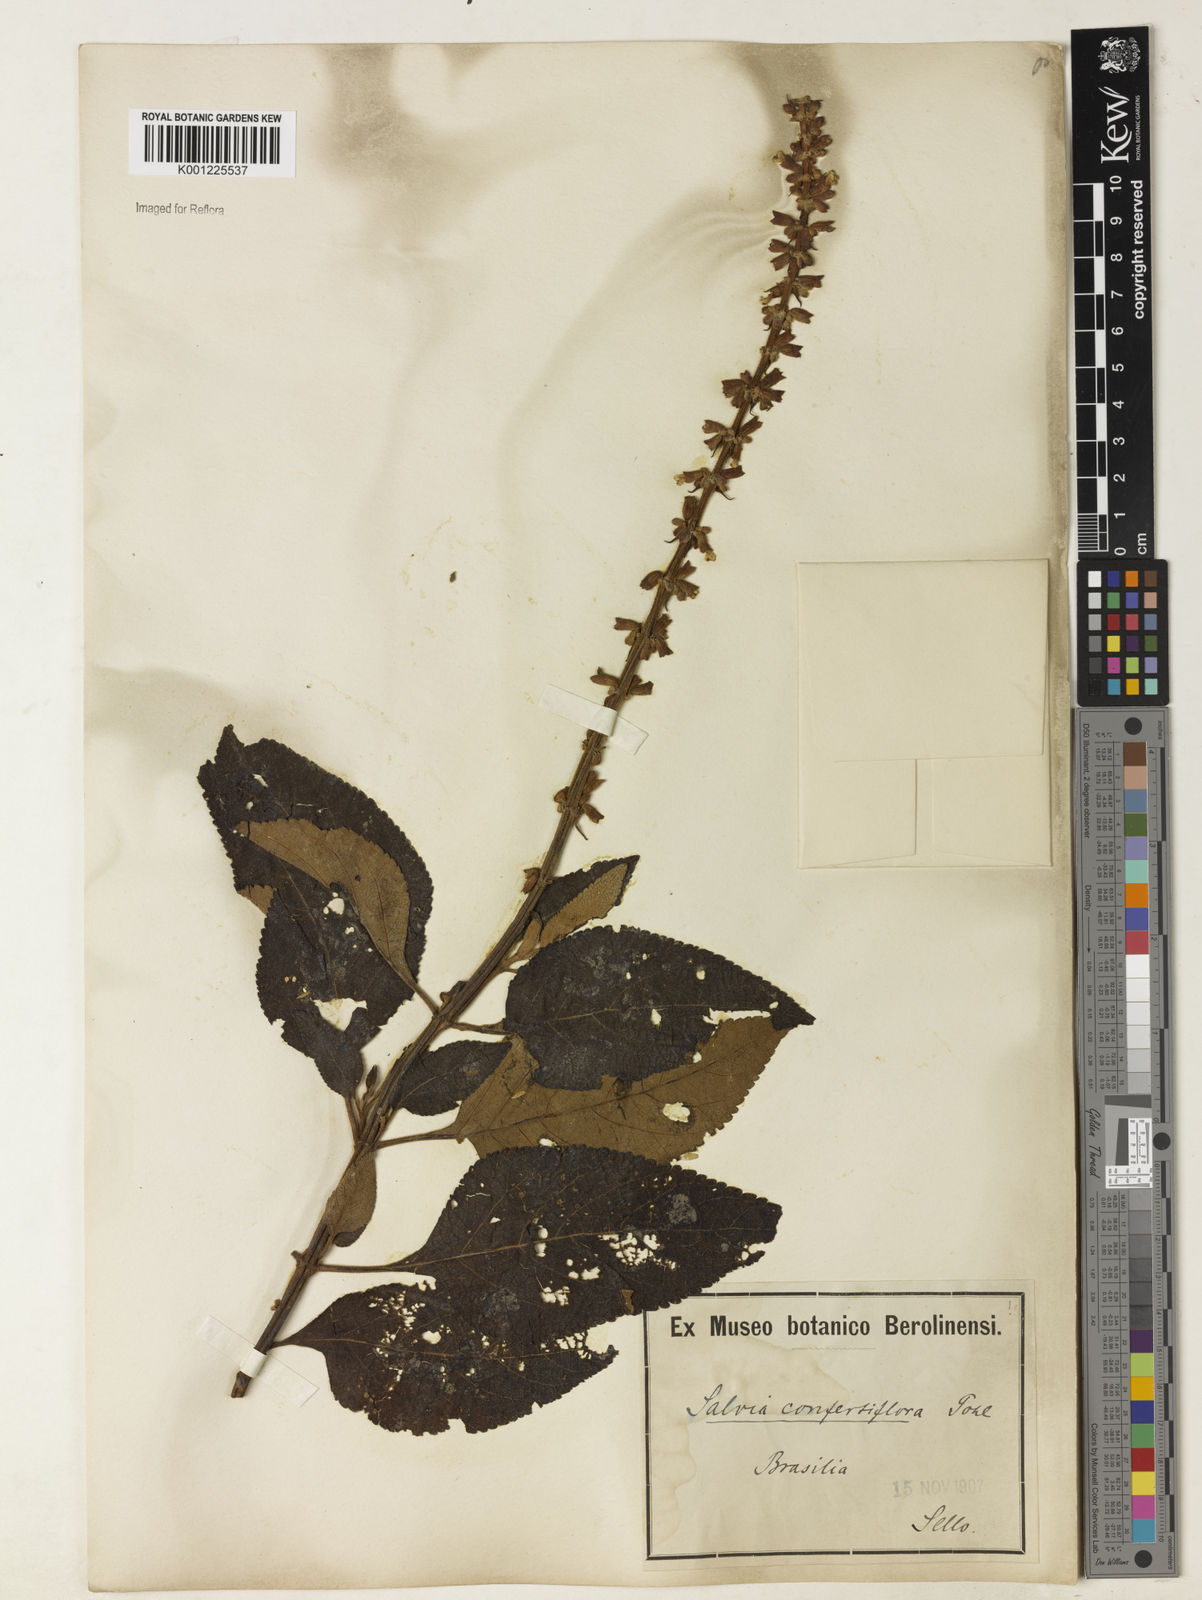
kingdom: Plantae
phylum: Tracheophyta
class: Magnoliopsida
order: Lamiales
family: Lamiaceae
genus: Salvia
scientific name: Salvia confertiflora
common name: Sabra-spike sage
